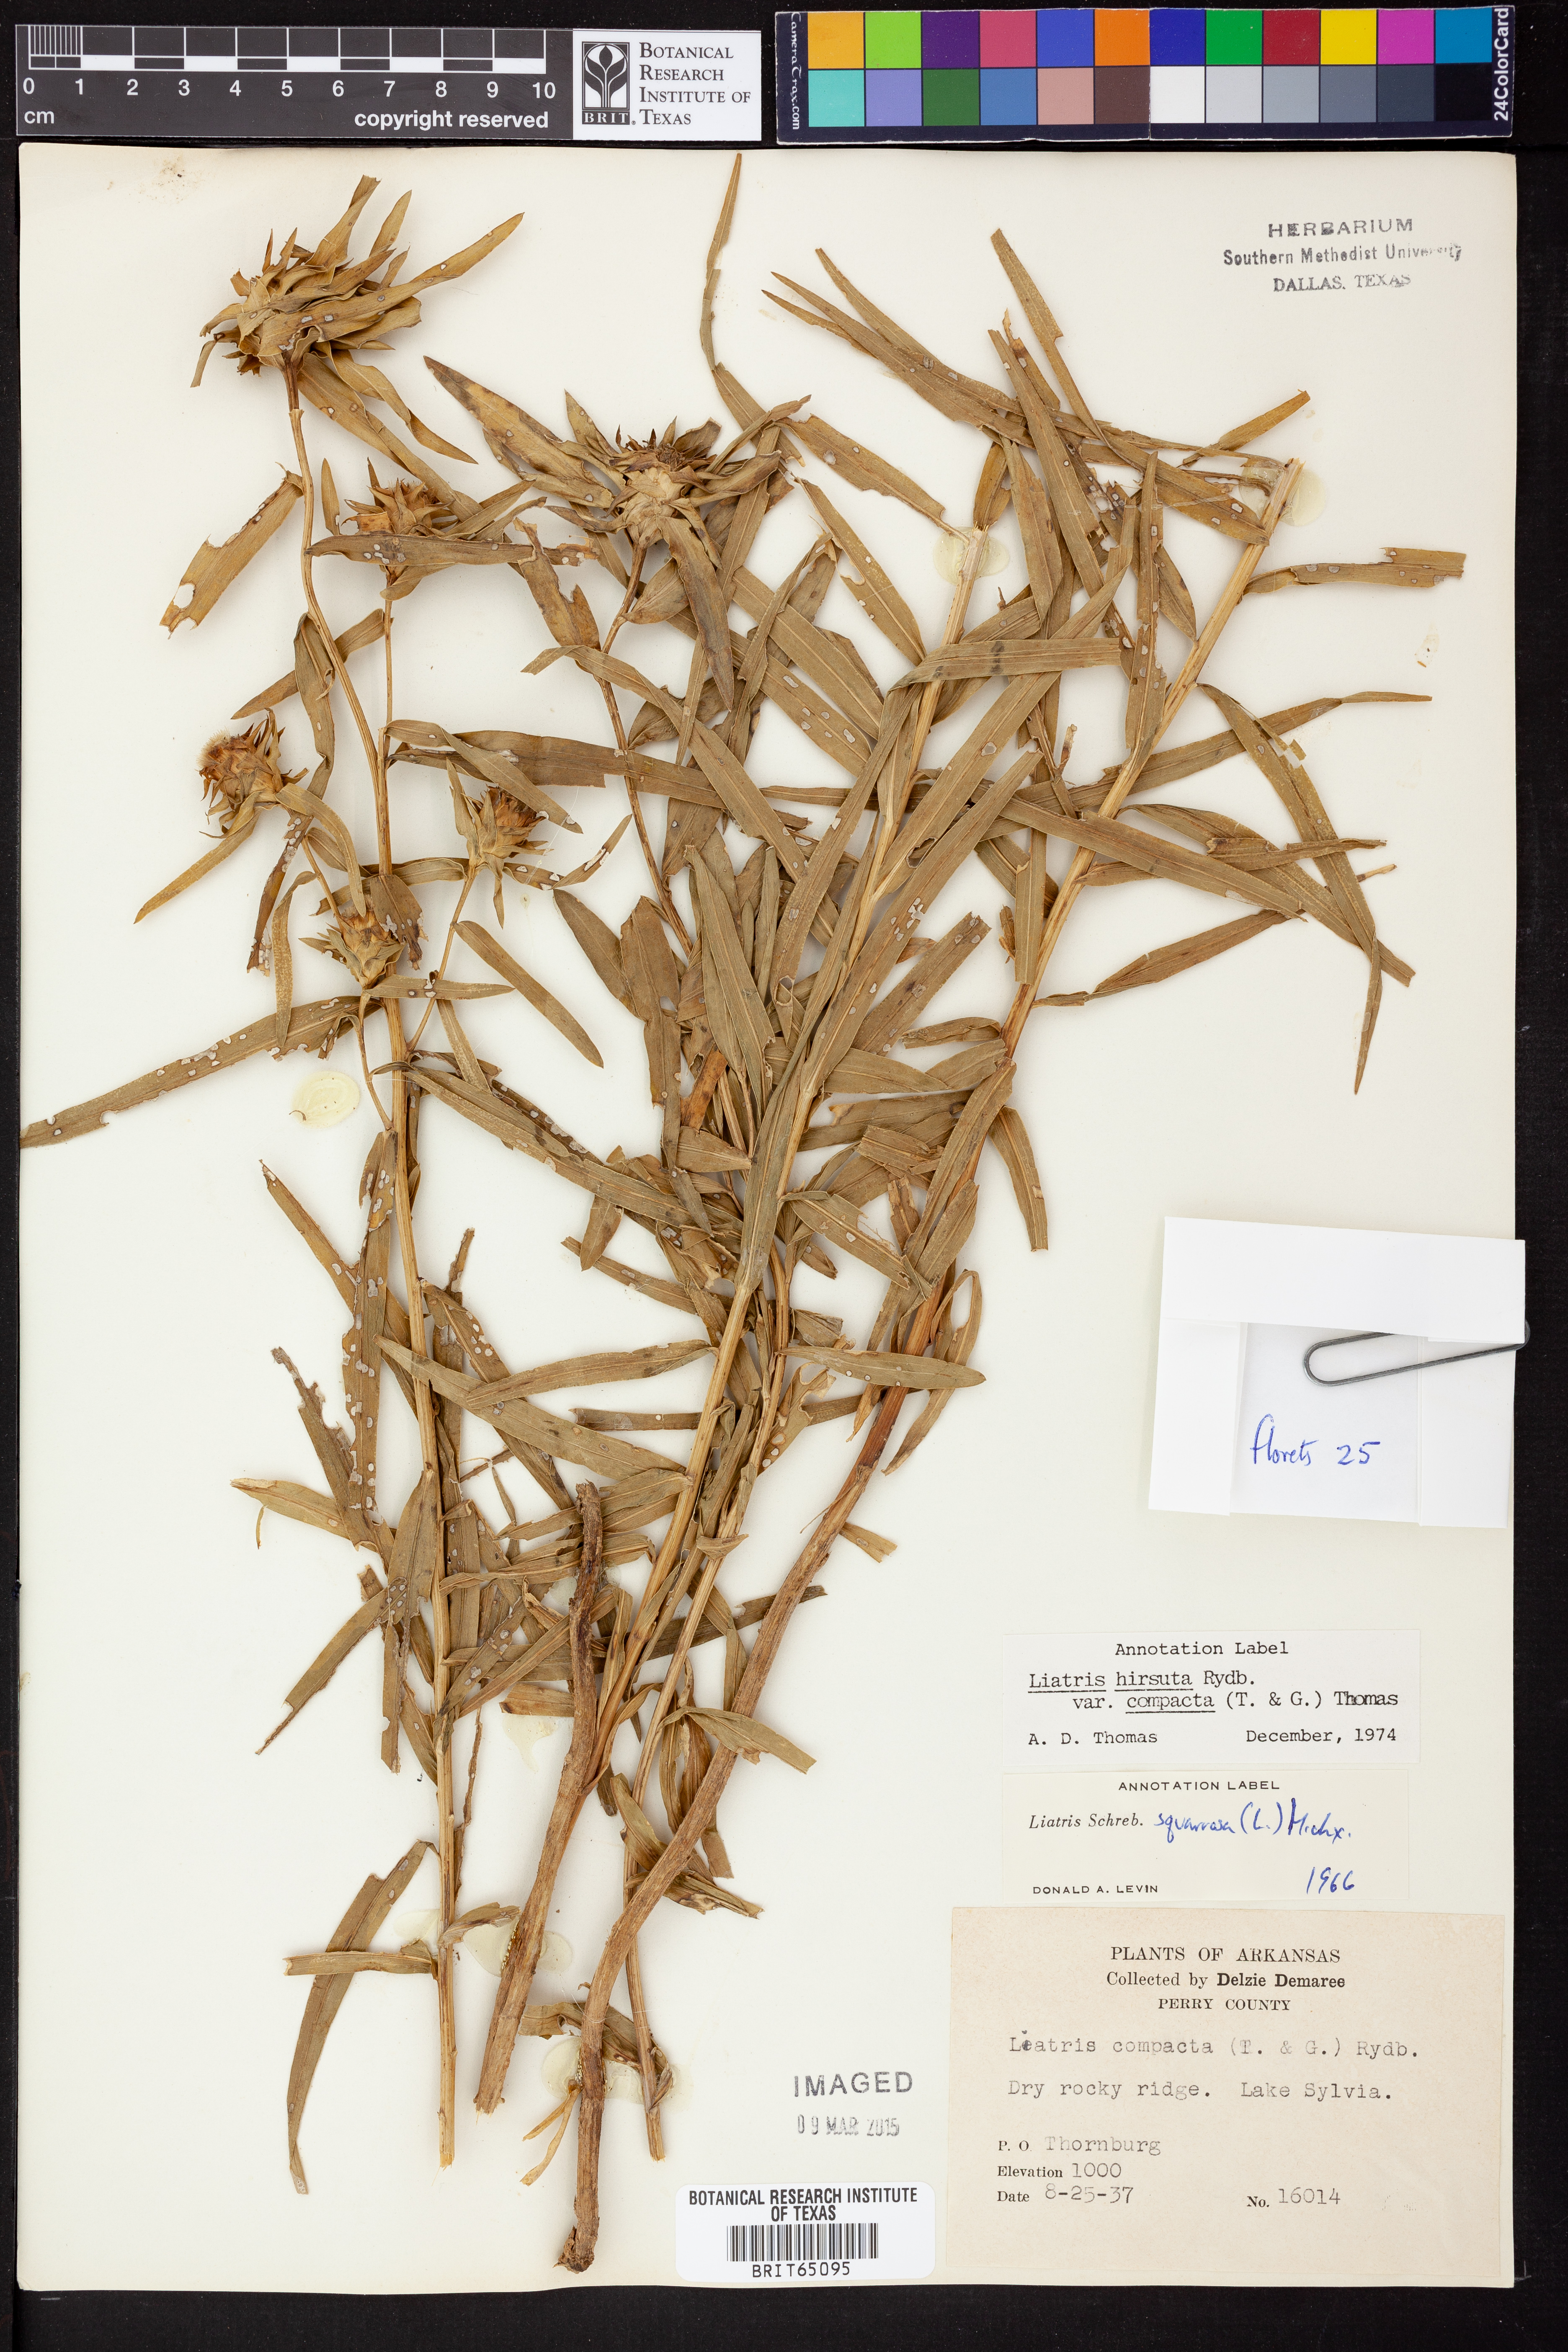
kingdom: Plantae
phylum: Tracheophyta
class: Magnoliopsida
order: Asterales
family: Asteraceae
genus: Liatris
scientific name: Liatris compacta
